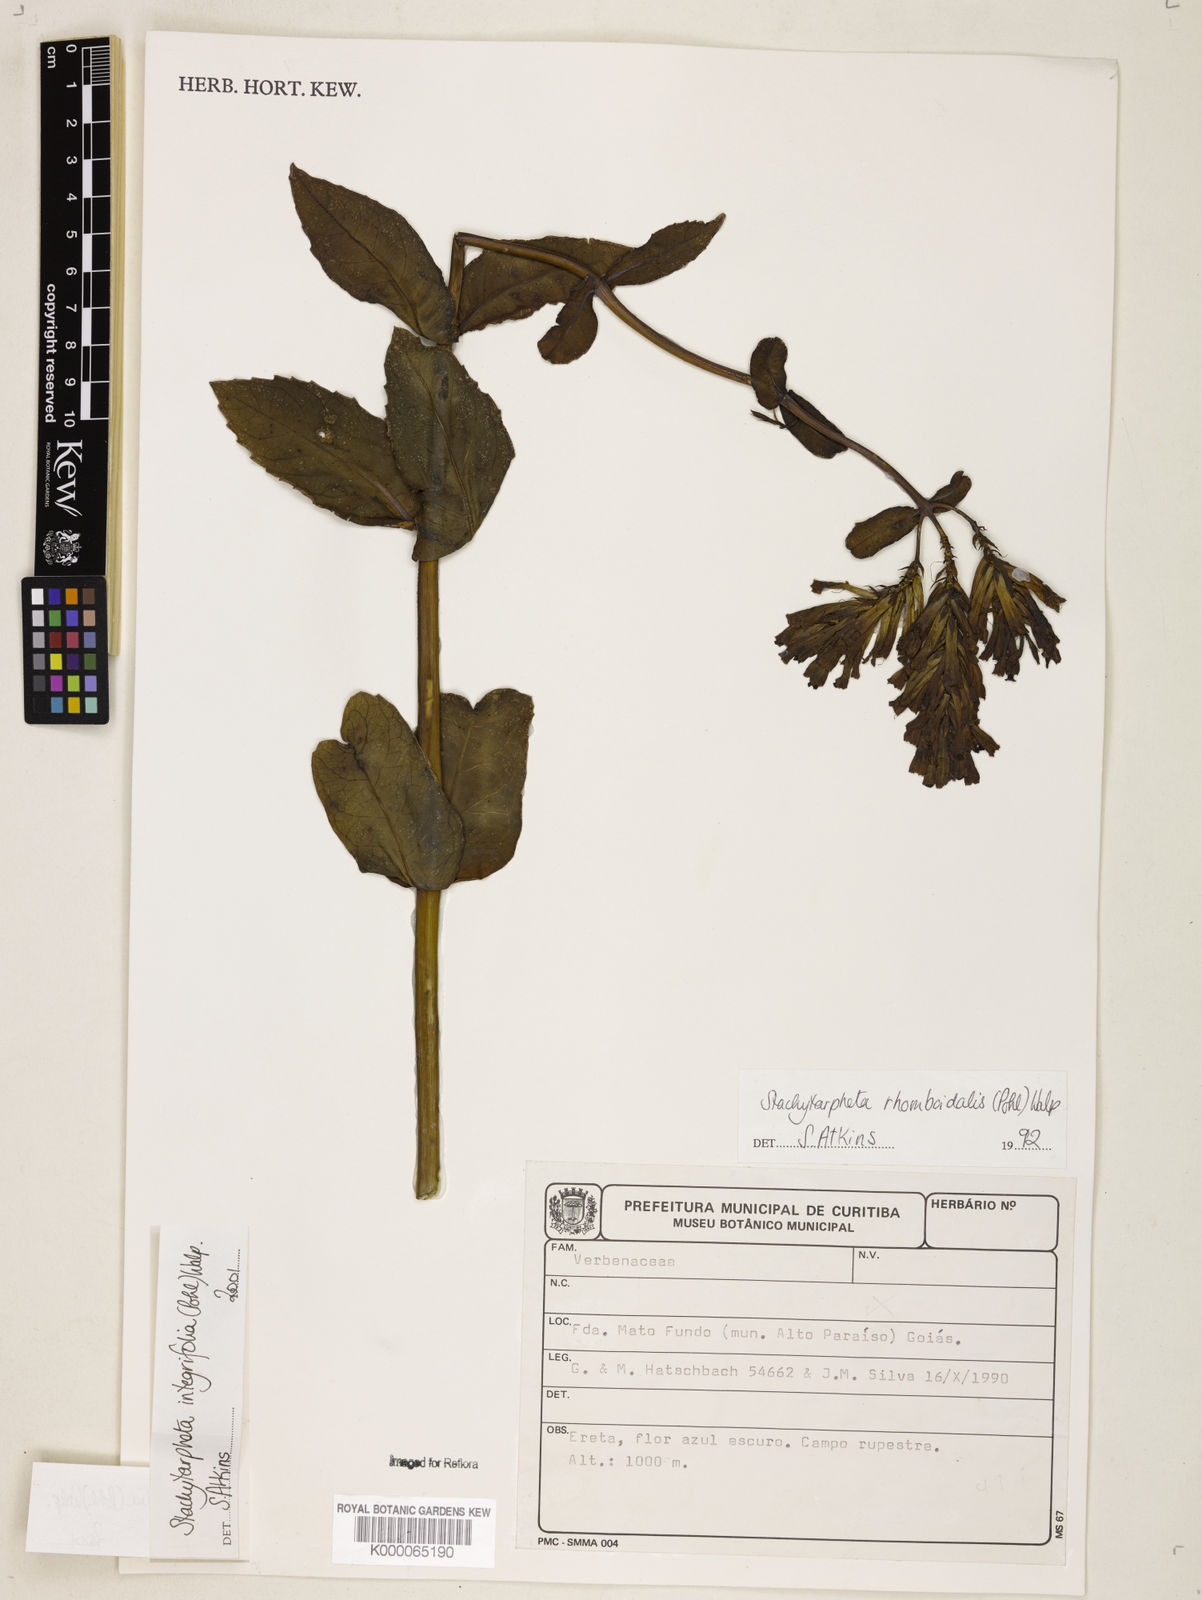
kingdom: Plantae
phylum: Tracheophyta
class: Magnoliopsida
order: Lamiales
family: Verbenaceae
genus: Stachytarpheta
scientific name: Stachytarpheta integrifolia
